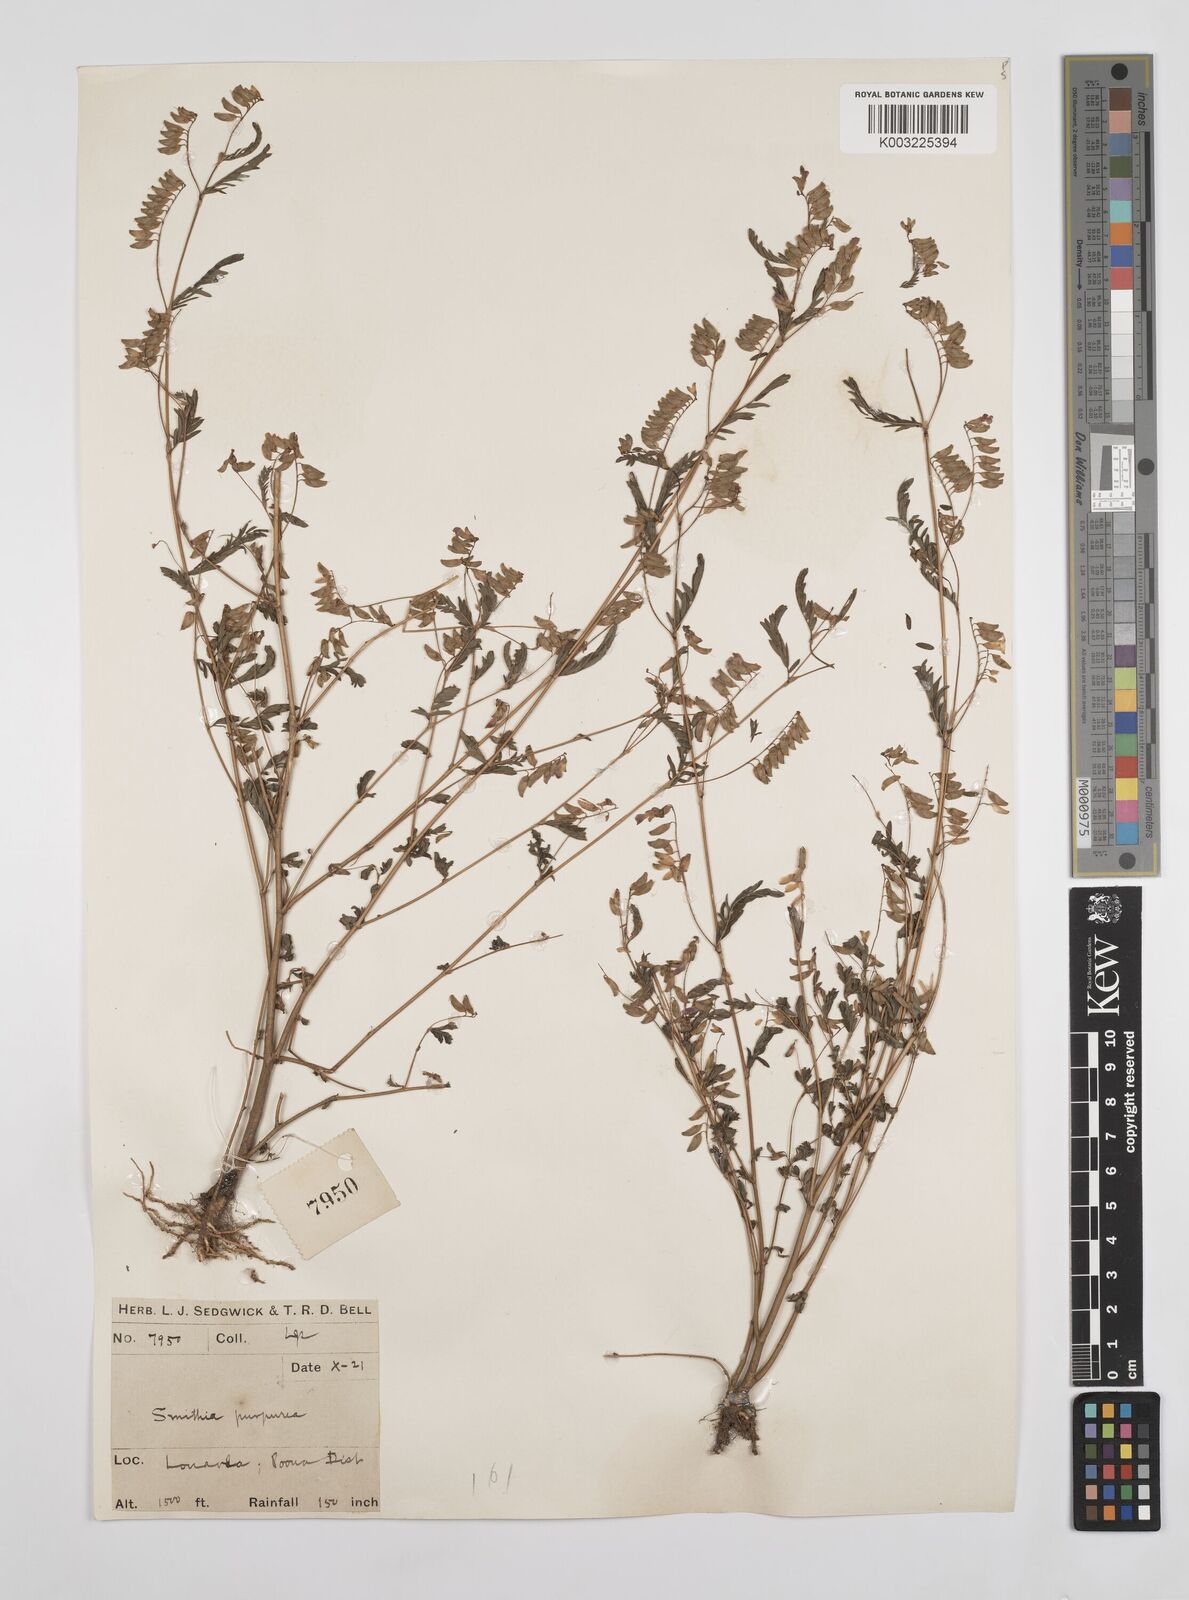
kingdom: Plantae
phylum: Tracheophyta
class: Magnoliopsida
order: Fabales
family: Fabaceae
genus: Smithia
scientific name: Smithia purpurea
